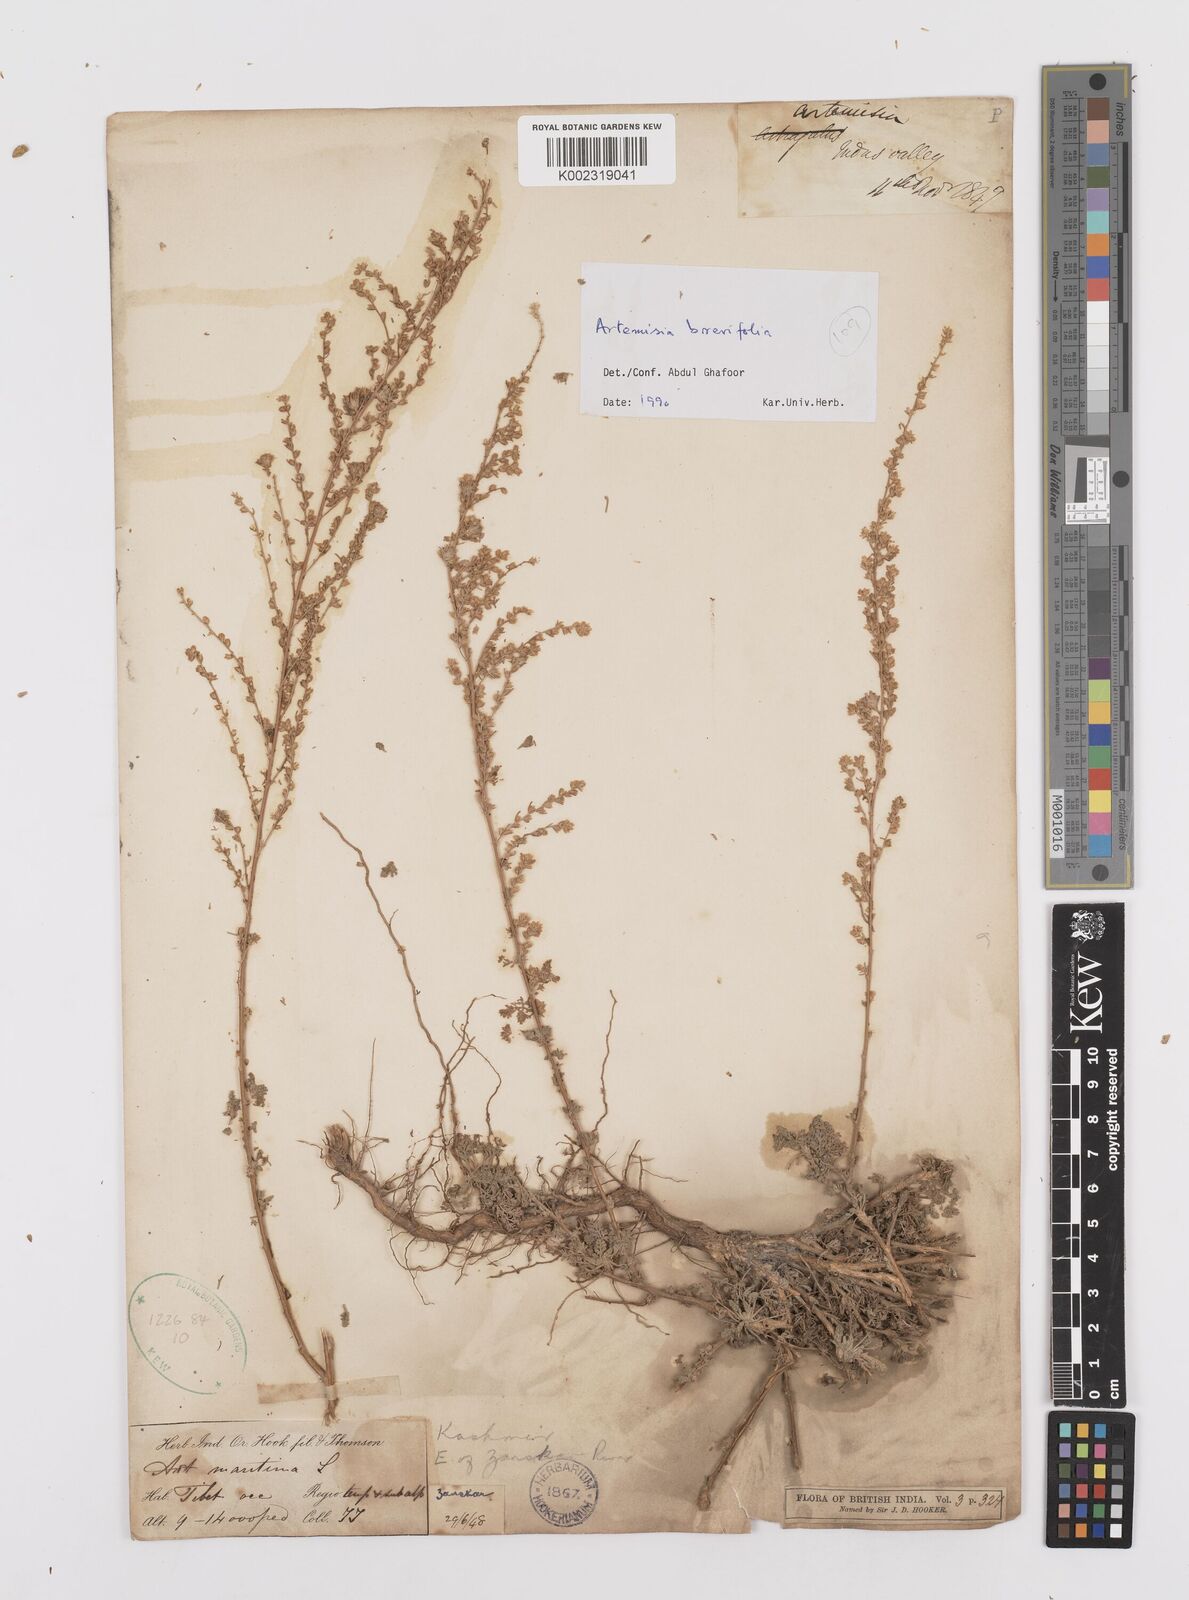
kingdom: Plantae
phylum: Tracheophyta
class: Magnoliopsida
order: Asterales
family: Asteraceae
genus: Artemisia
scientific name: Artemisia brevifolia
